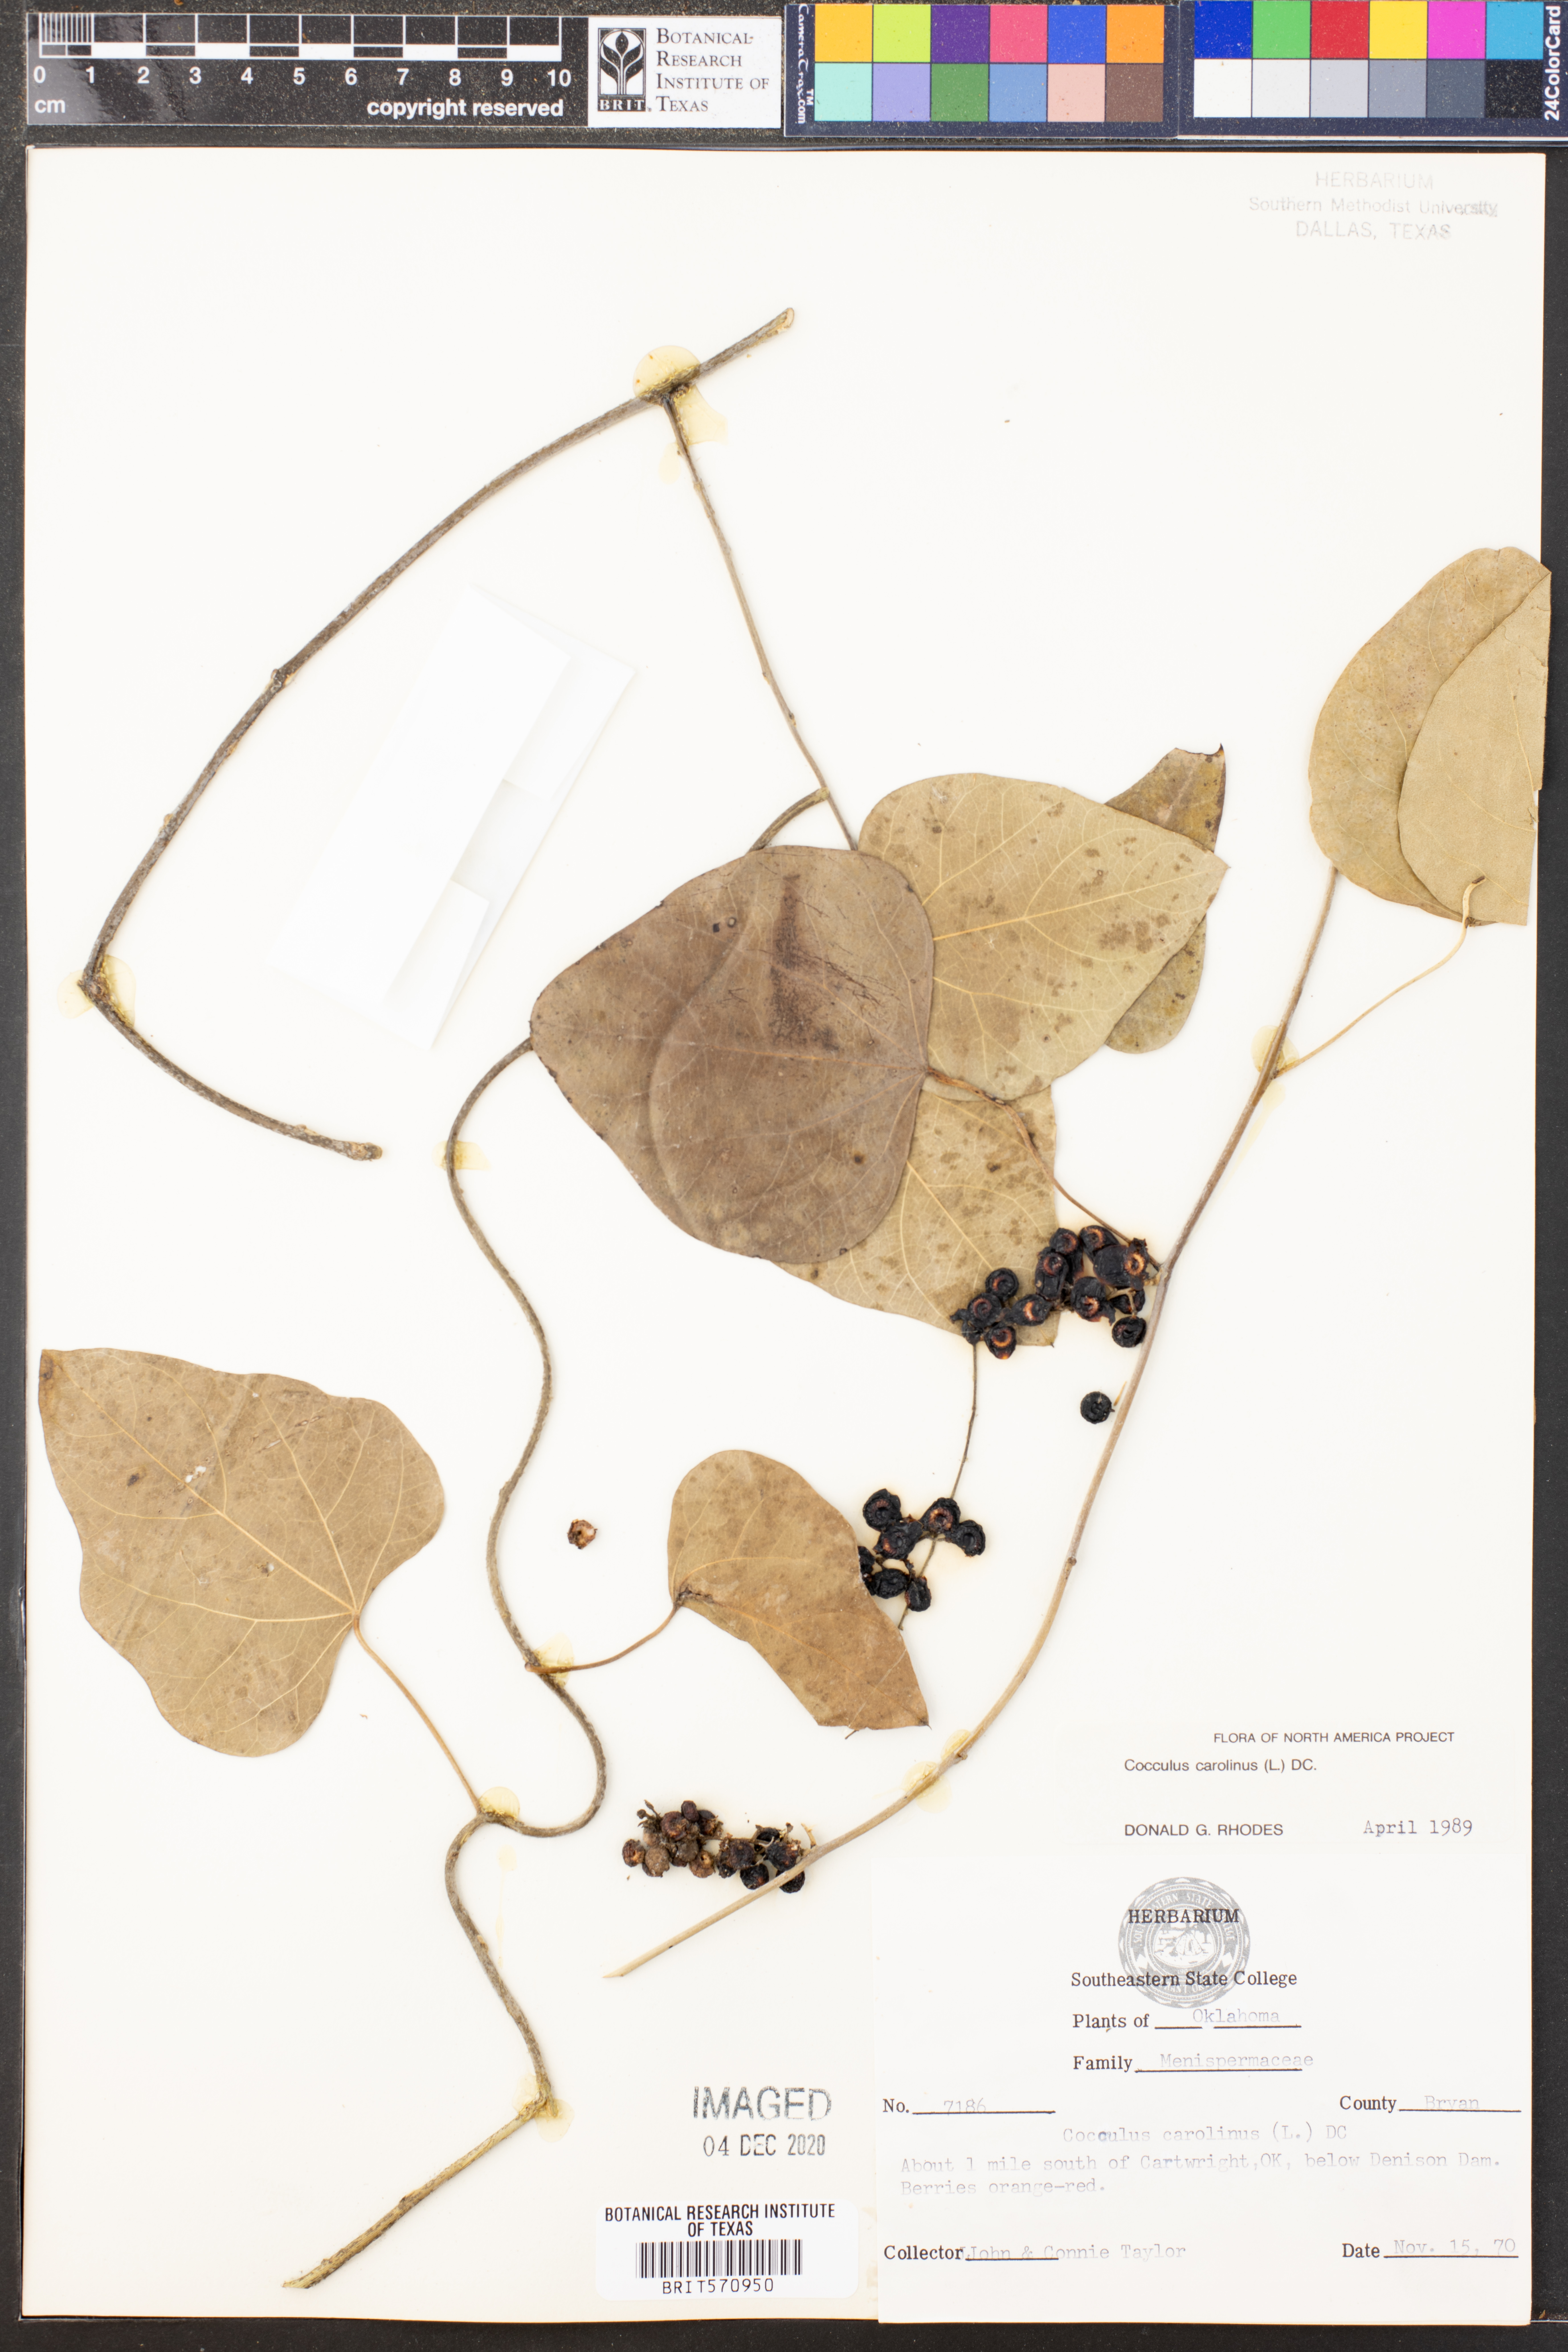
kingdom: Plantae
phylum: Tracheophyta
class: Magnoliopsida
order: Ranunculales
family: Menispermaceae
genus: Cocculus
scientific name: Cocculus carolinus
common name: Carolina moonseed
